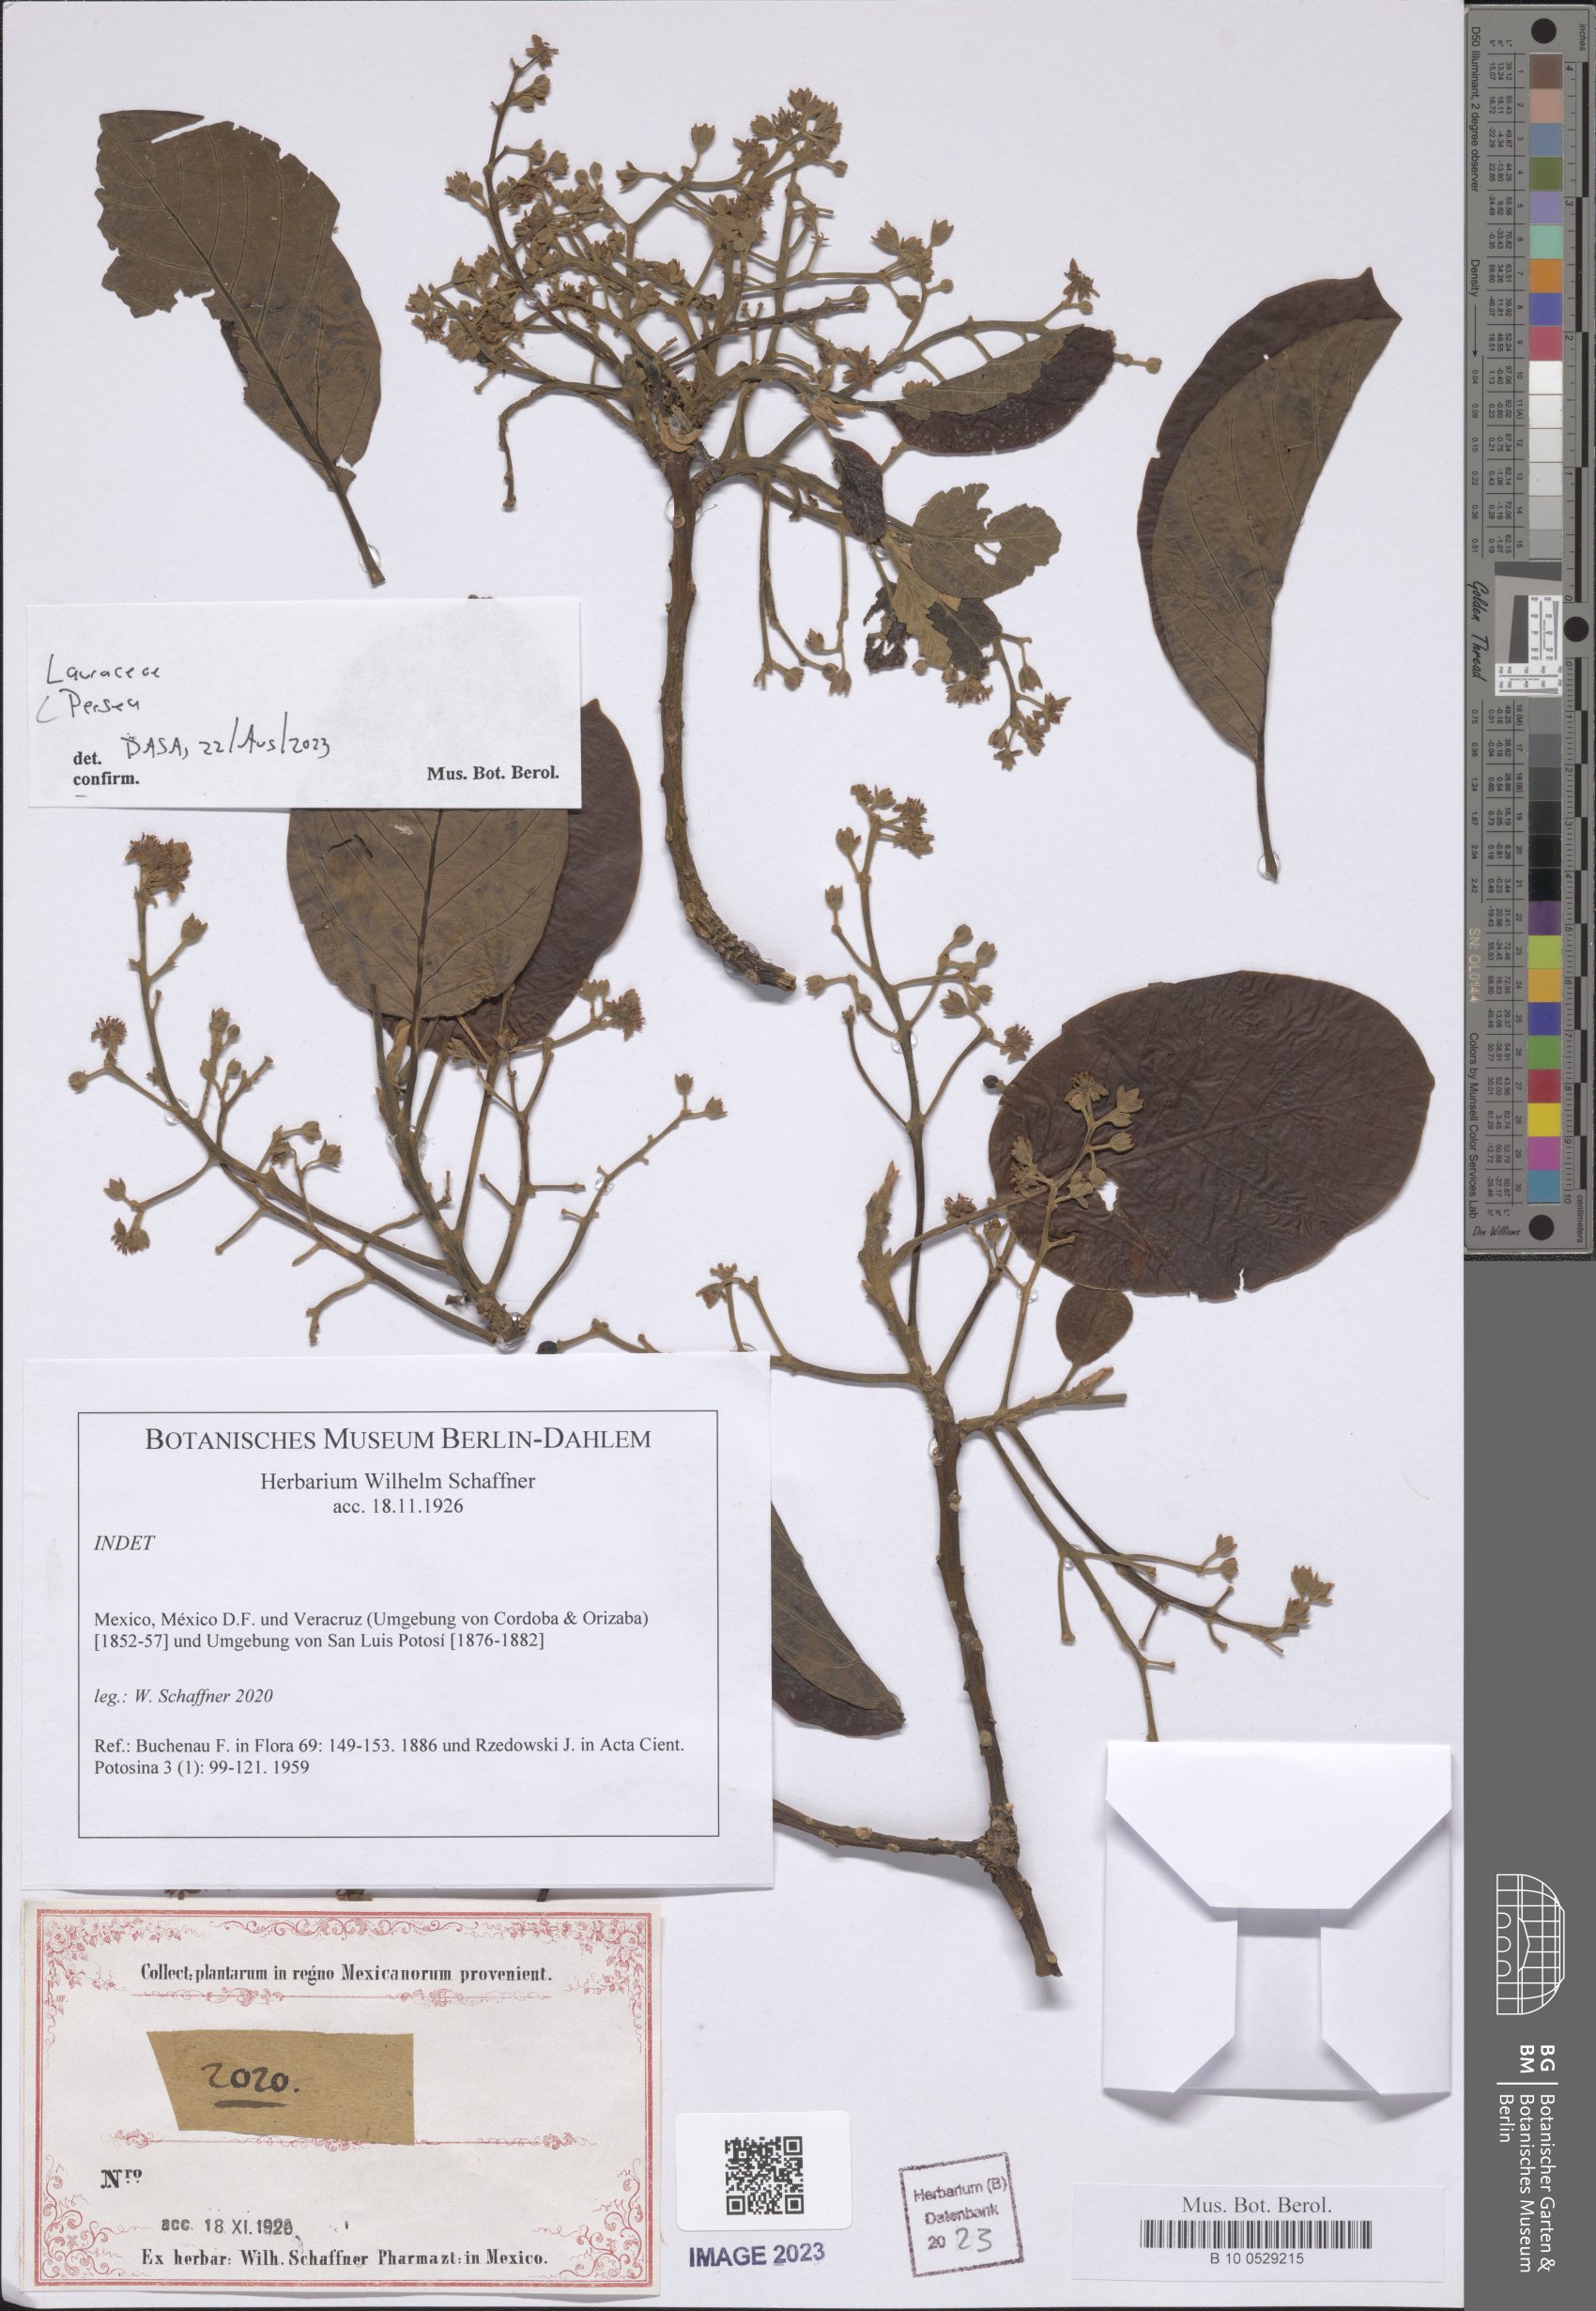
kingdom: Plantae
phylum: Tracheophyta
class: Magnoliopsida
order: Laurales
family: Lauraceae
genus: Persea
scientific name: Persea
